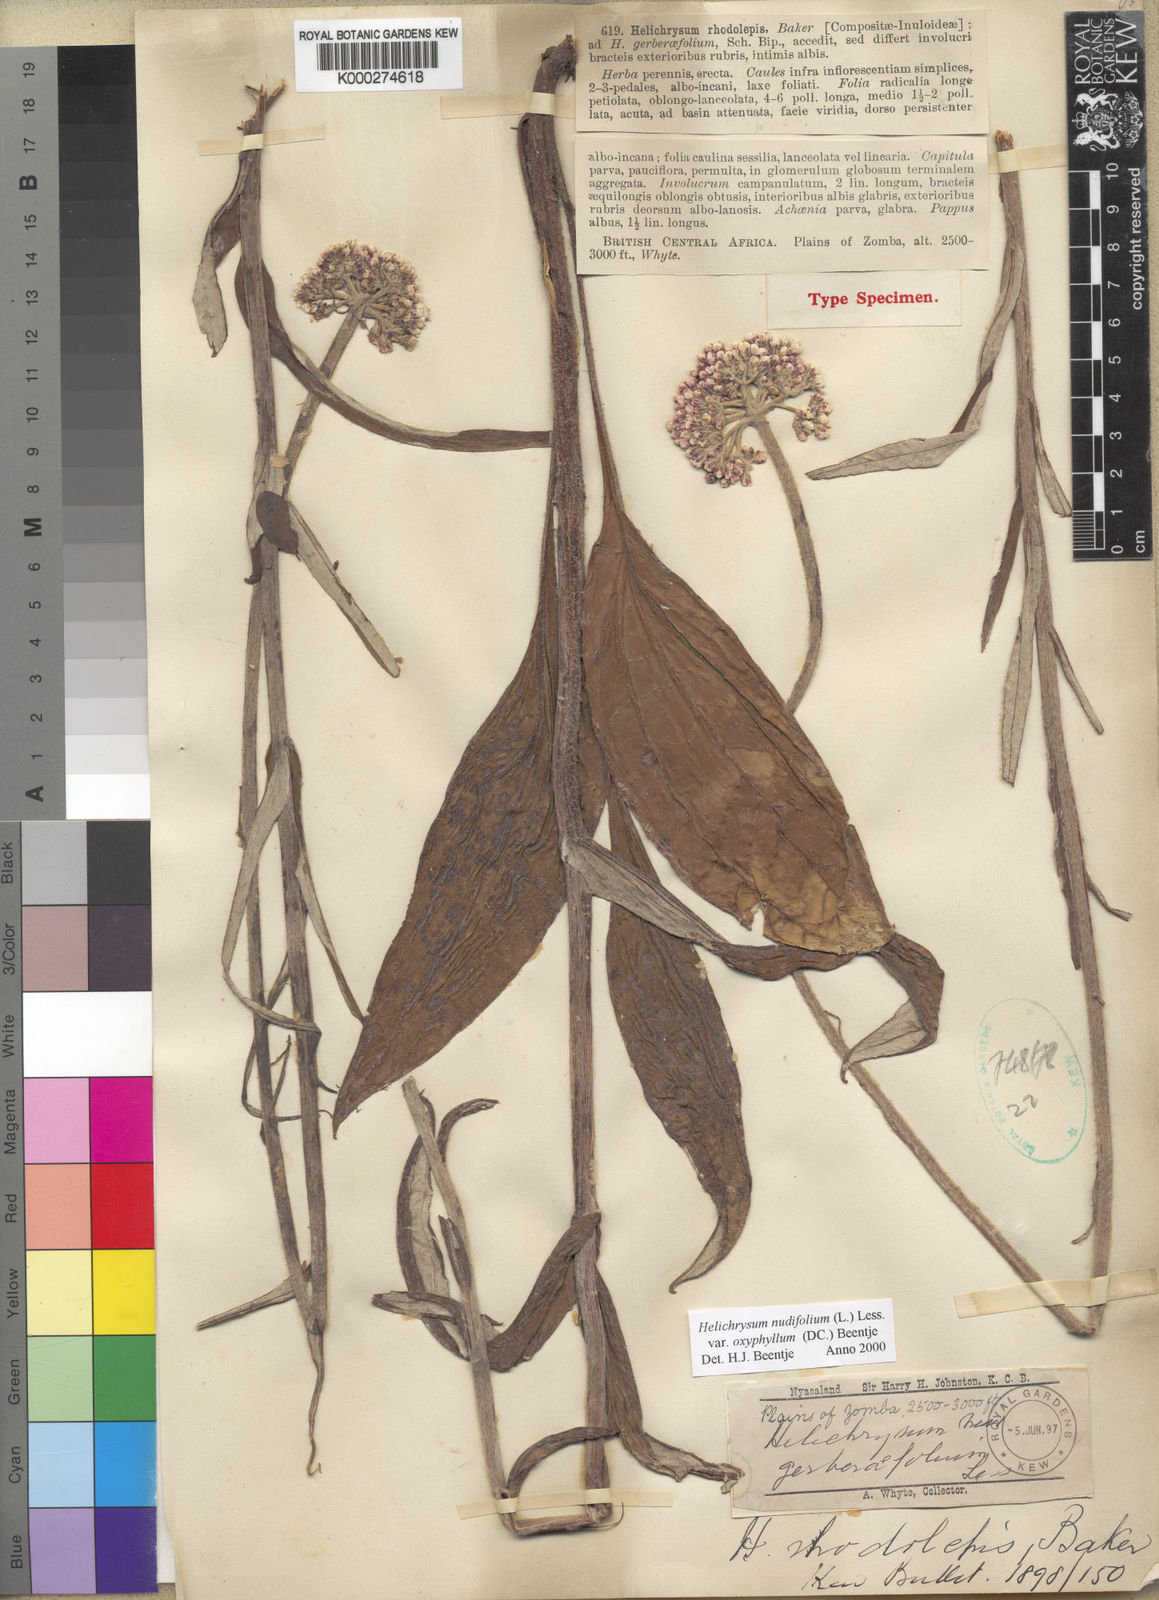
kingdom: Plantae
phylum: Tracheophyta
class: Magnoliopsida
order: Asterales
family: Asteraceae
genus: Helichrysum
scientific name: Helichrysum nudifolium
